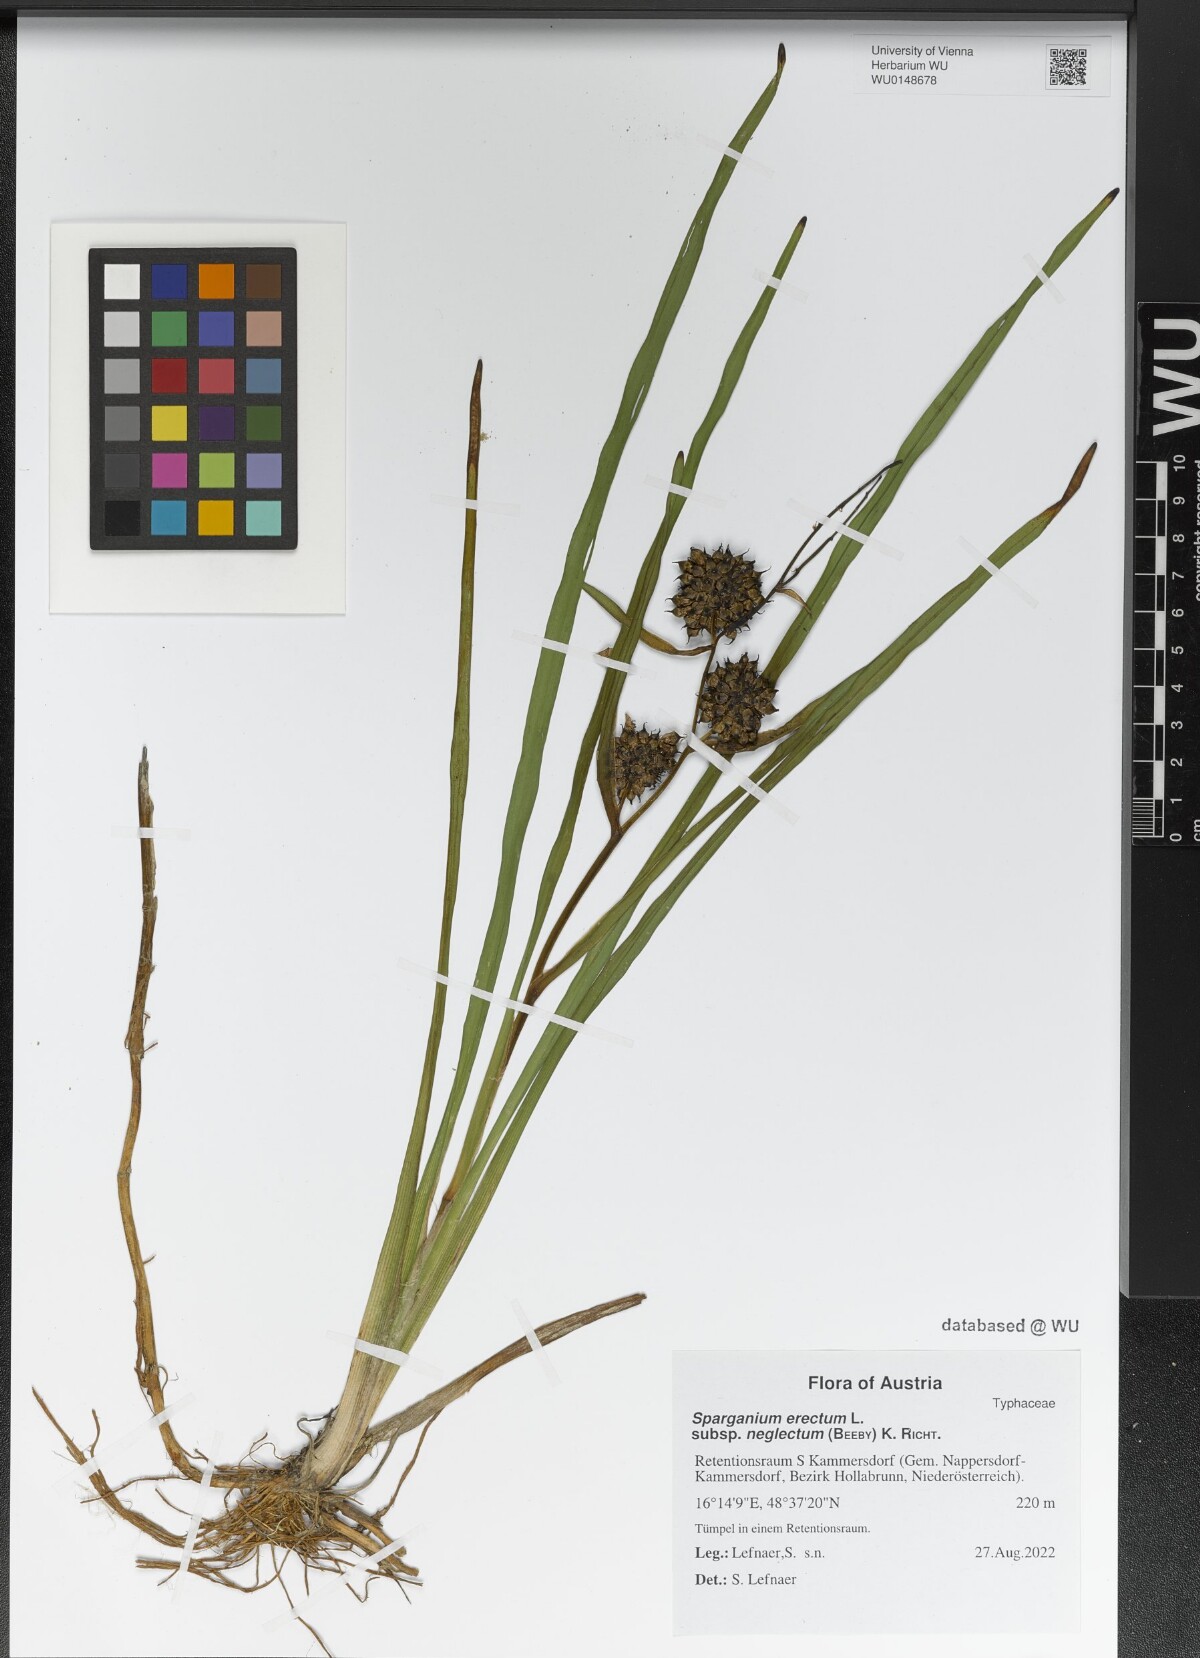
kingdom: Plantae
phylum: Tracheophyta
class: Liliopsida
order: Poales
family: Typhaceae
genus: Sparganium
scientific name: Sparganium erectum
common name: Branched bur-reed
